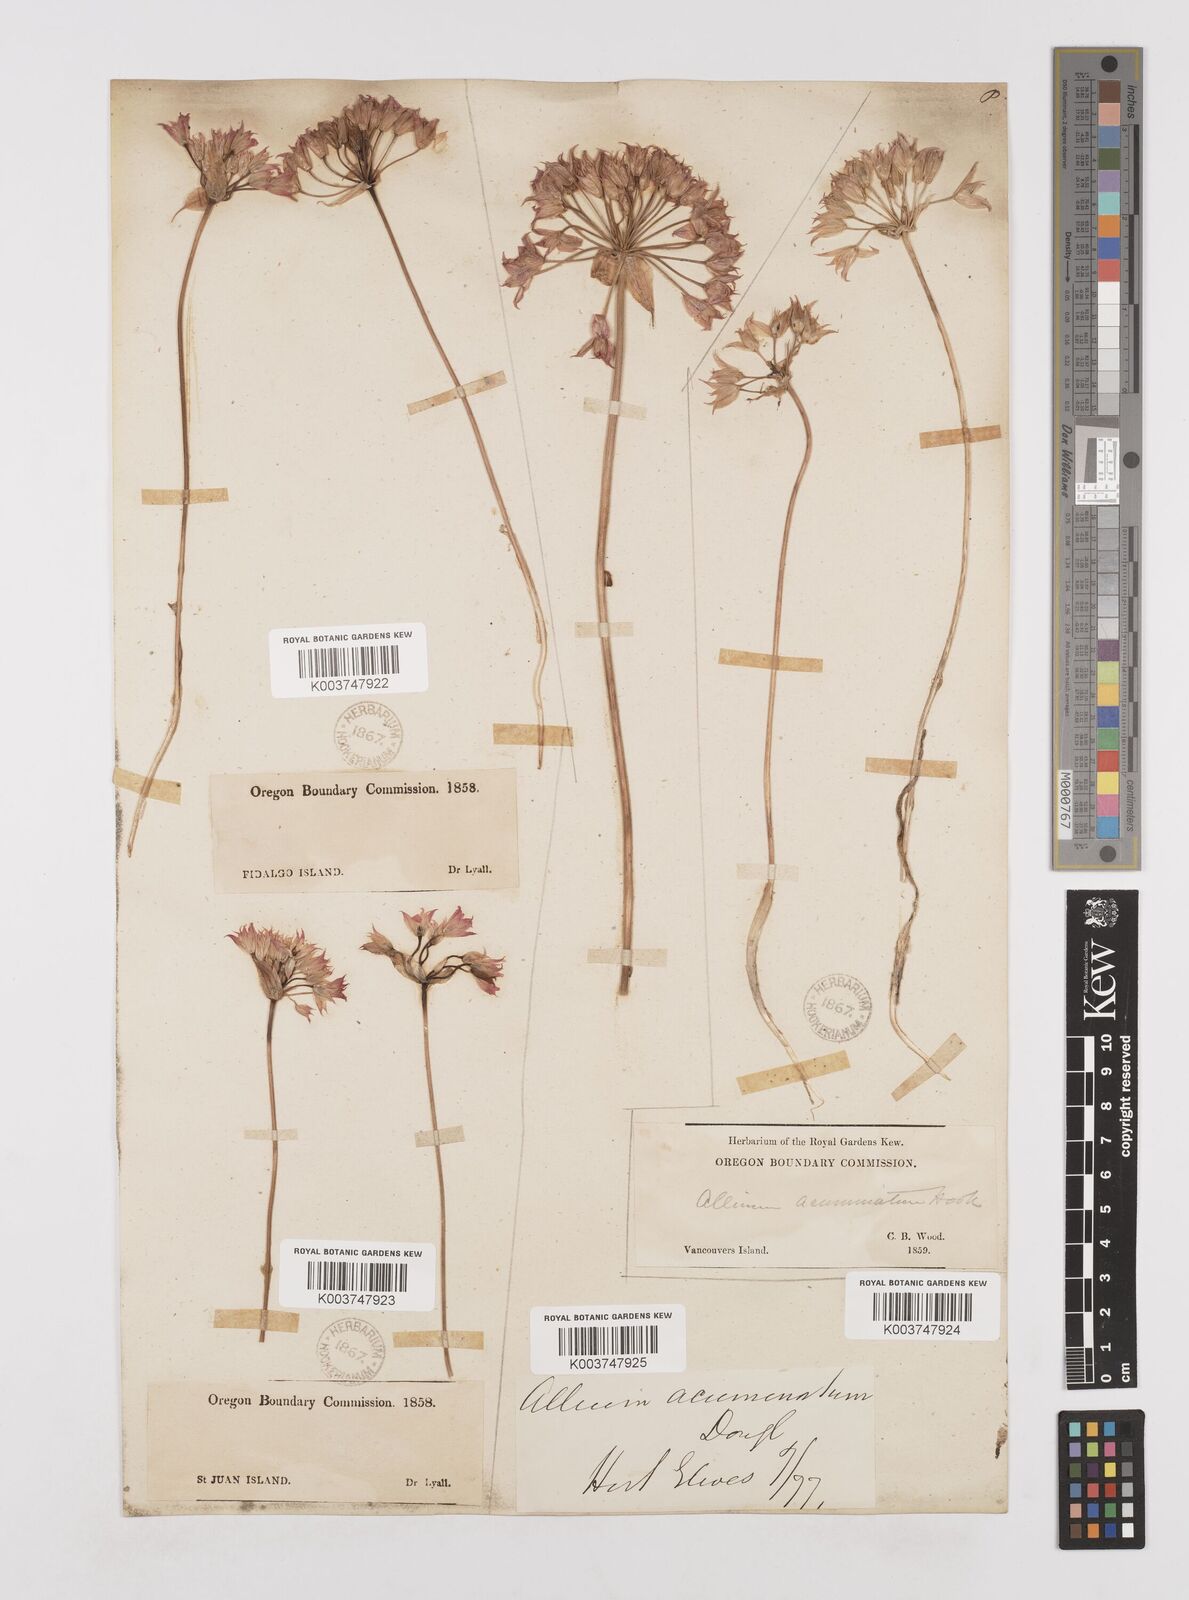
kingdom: Plantae
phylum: Tracheophyta
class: Liliopsida
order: Asparagales
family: Amaryllidaceae
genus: Allium
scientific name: Allium acuminatum
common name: Hooker's onion
